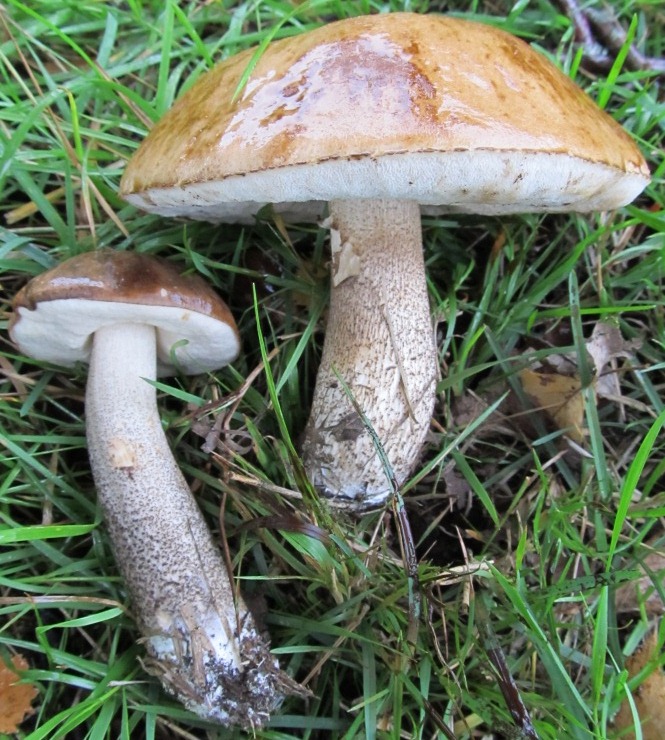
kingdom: Fungi
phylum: Basidiomycota
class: Agaricomycetes
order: Boletales
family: Boletaceae
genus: Leccinum
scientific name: Leccinum scabrum
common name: brun skælrørhat
